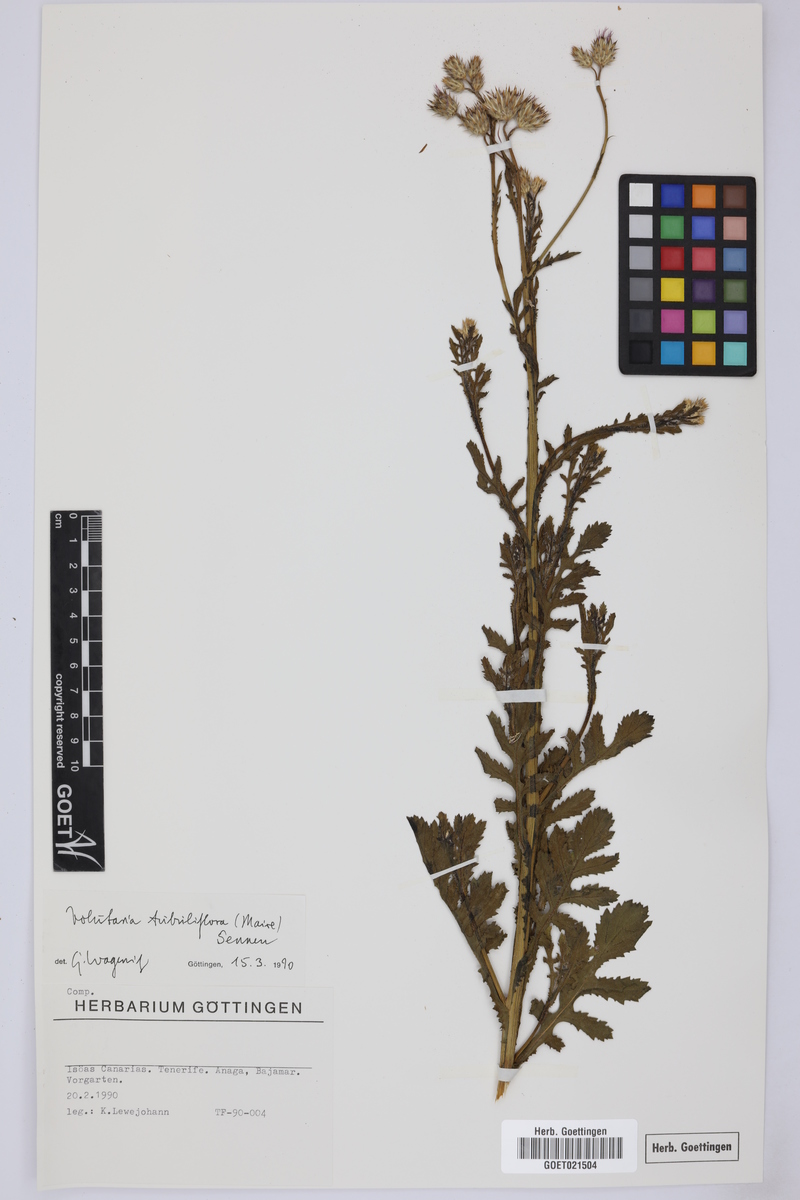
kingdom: Plantae
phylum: Tracheophyta
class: Magnoliopsida
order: Asterales
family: Asteraceae
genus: Volutaria
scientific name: Volutaria tubuliflora
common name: Desert knapweed
